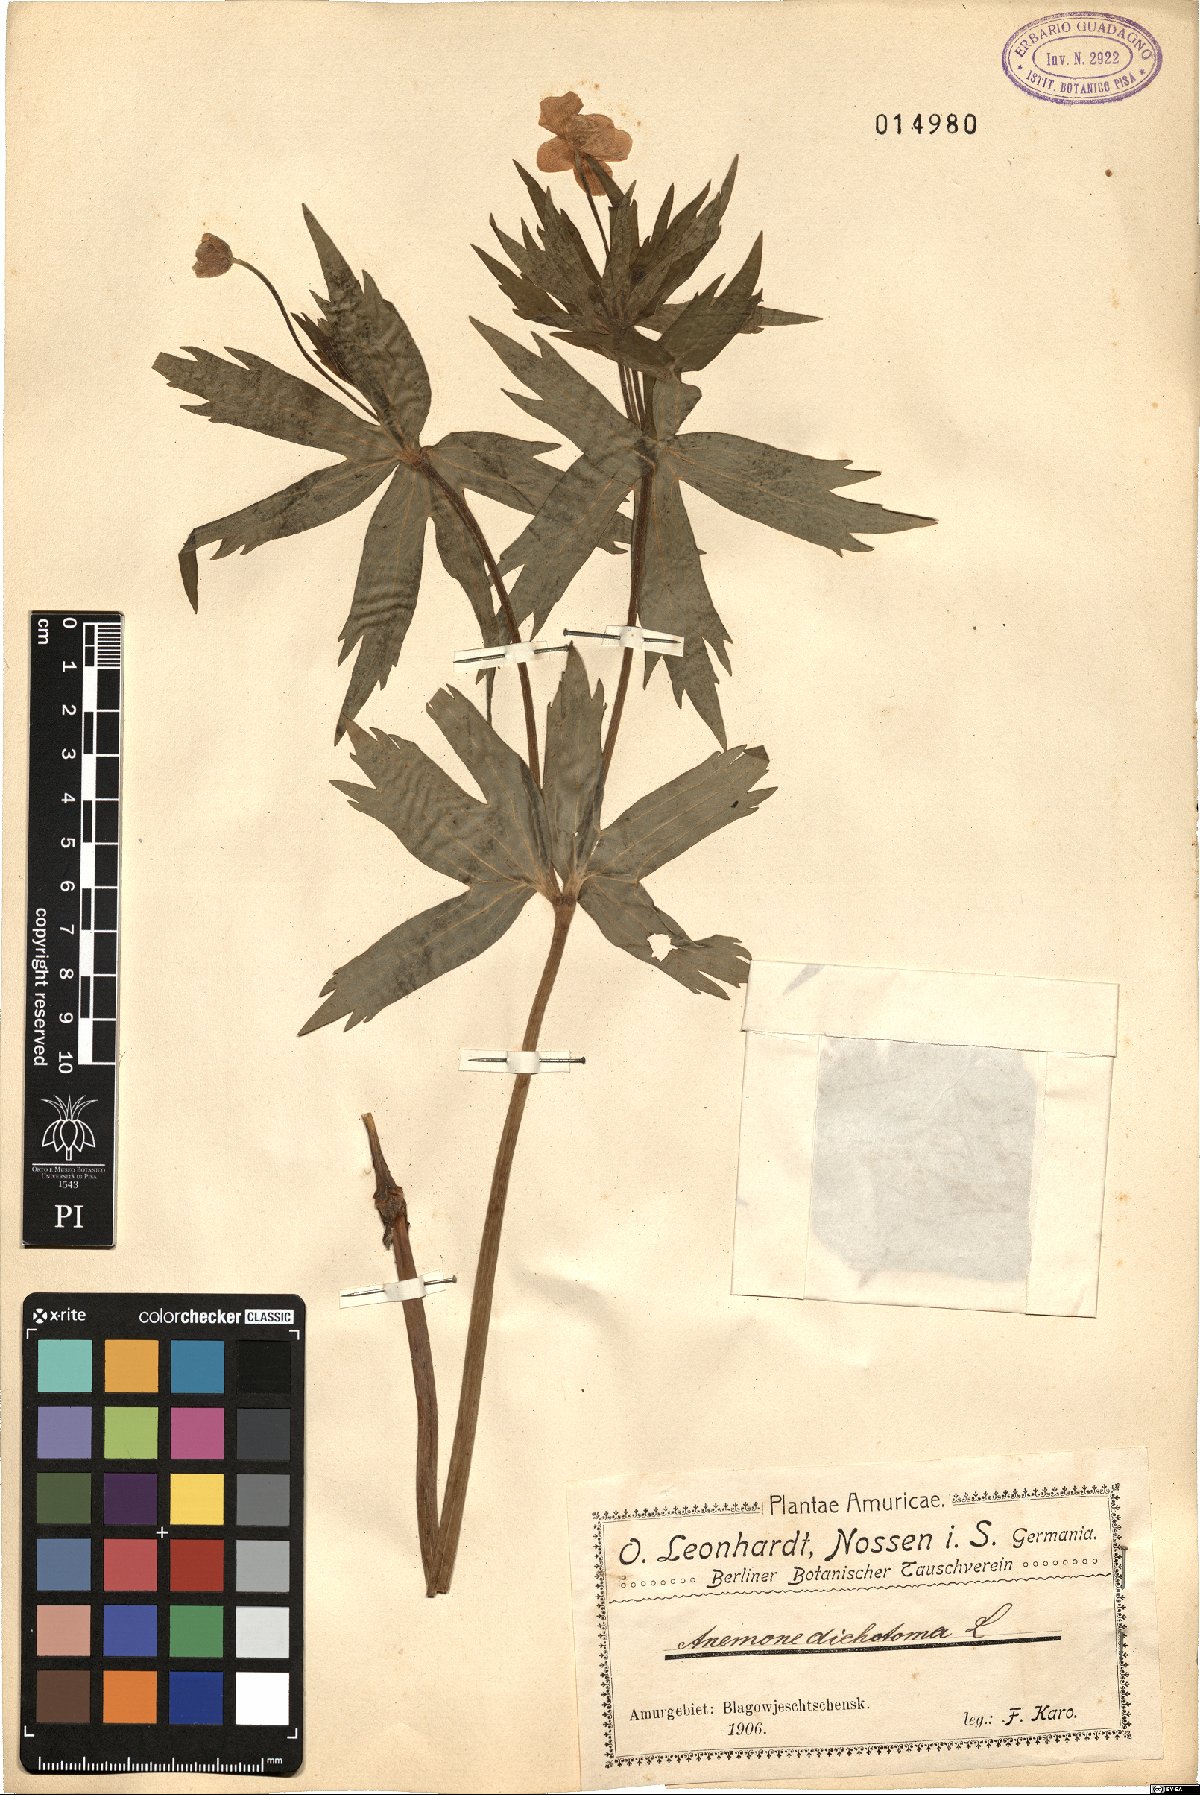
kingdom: Plantae
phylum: Tracheophyta
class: Magnoliopsida
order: Ranunculales
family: Ranunculaceae
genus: Anemonastrum
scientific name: Anemonastrum dichotomum
